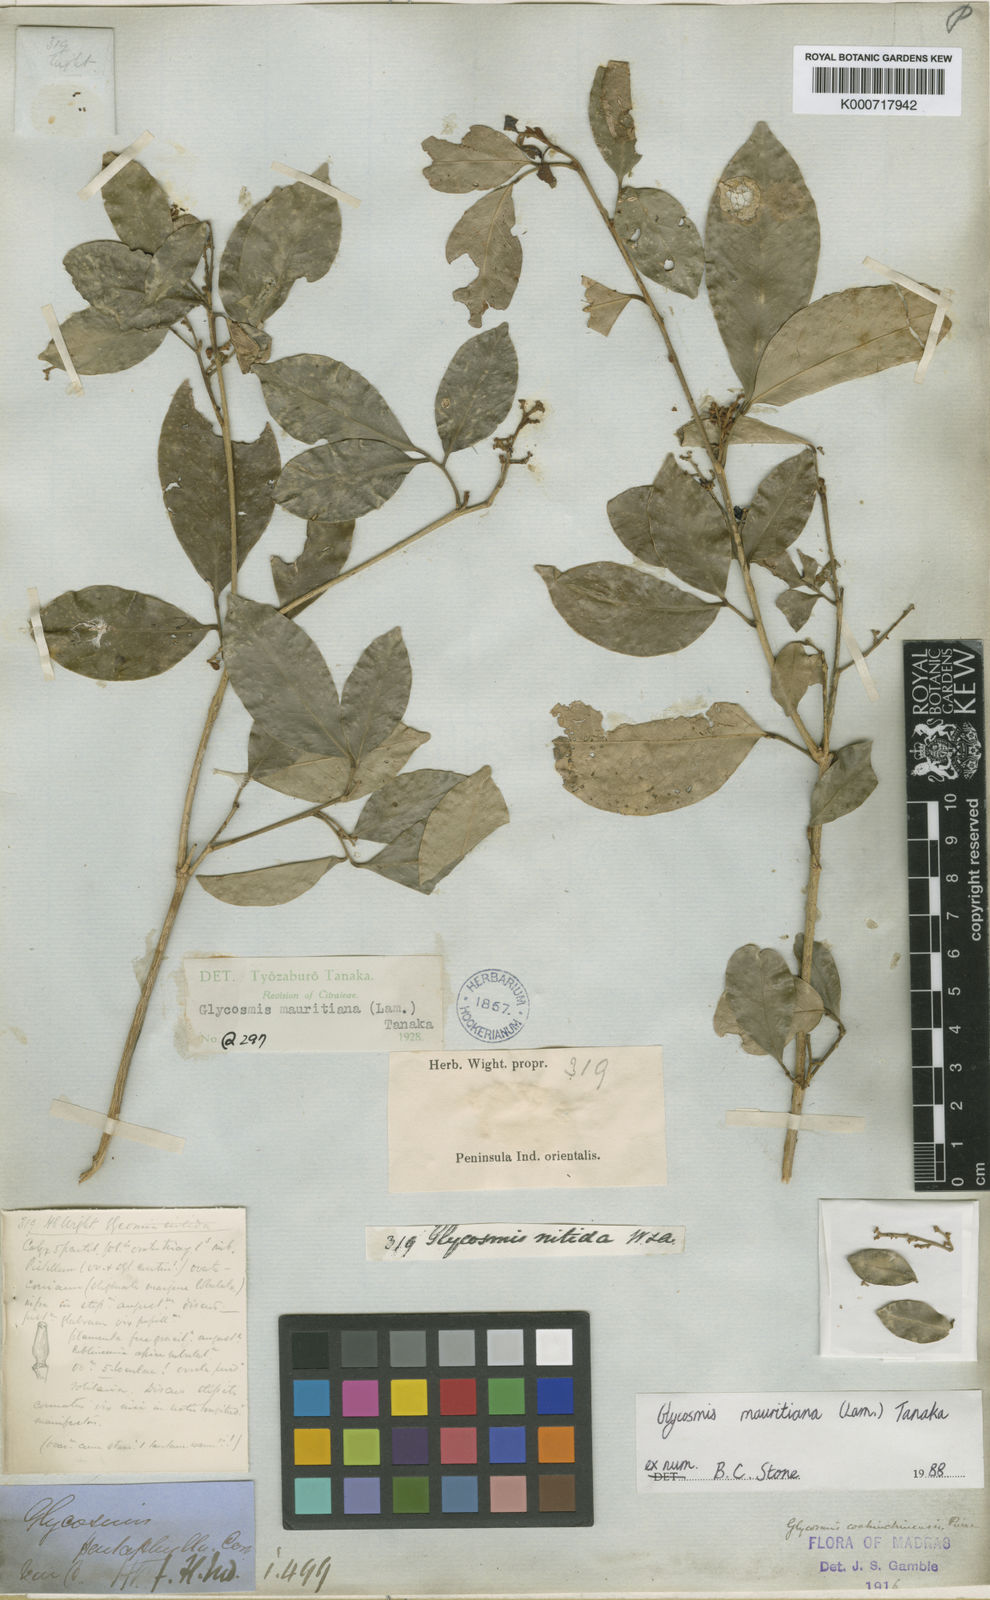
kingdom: Plantae
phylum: Tracheophyta
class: Magnoliopsida
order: Sapindales
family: Rutaceae
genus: Glycosmis
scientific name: Glycosmis mauritiana
